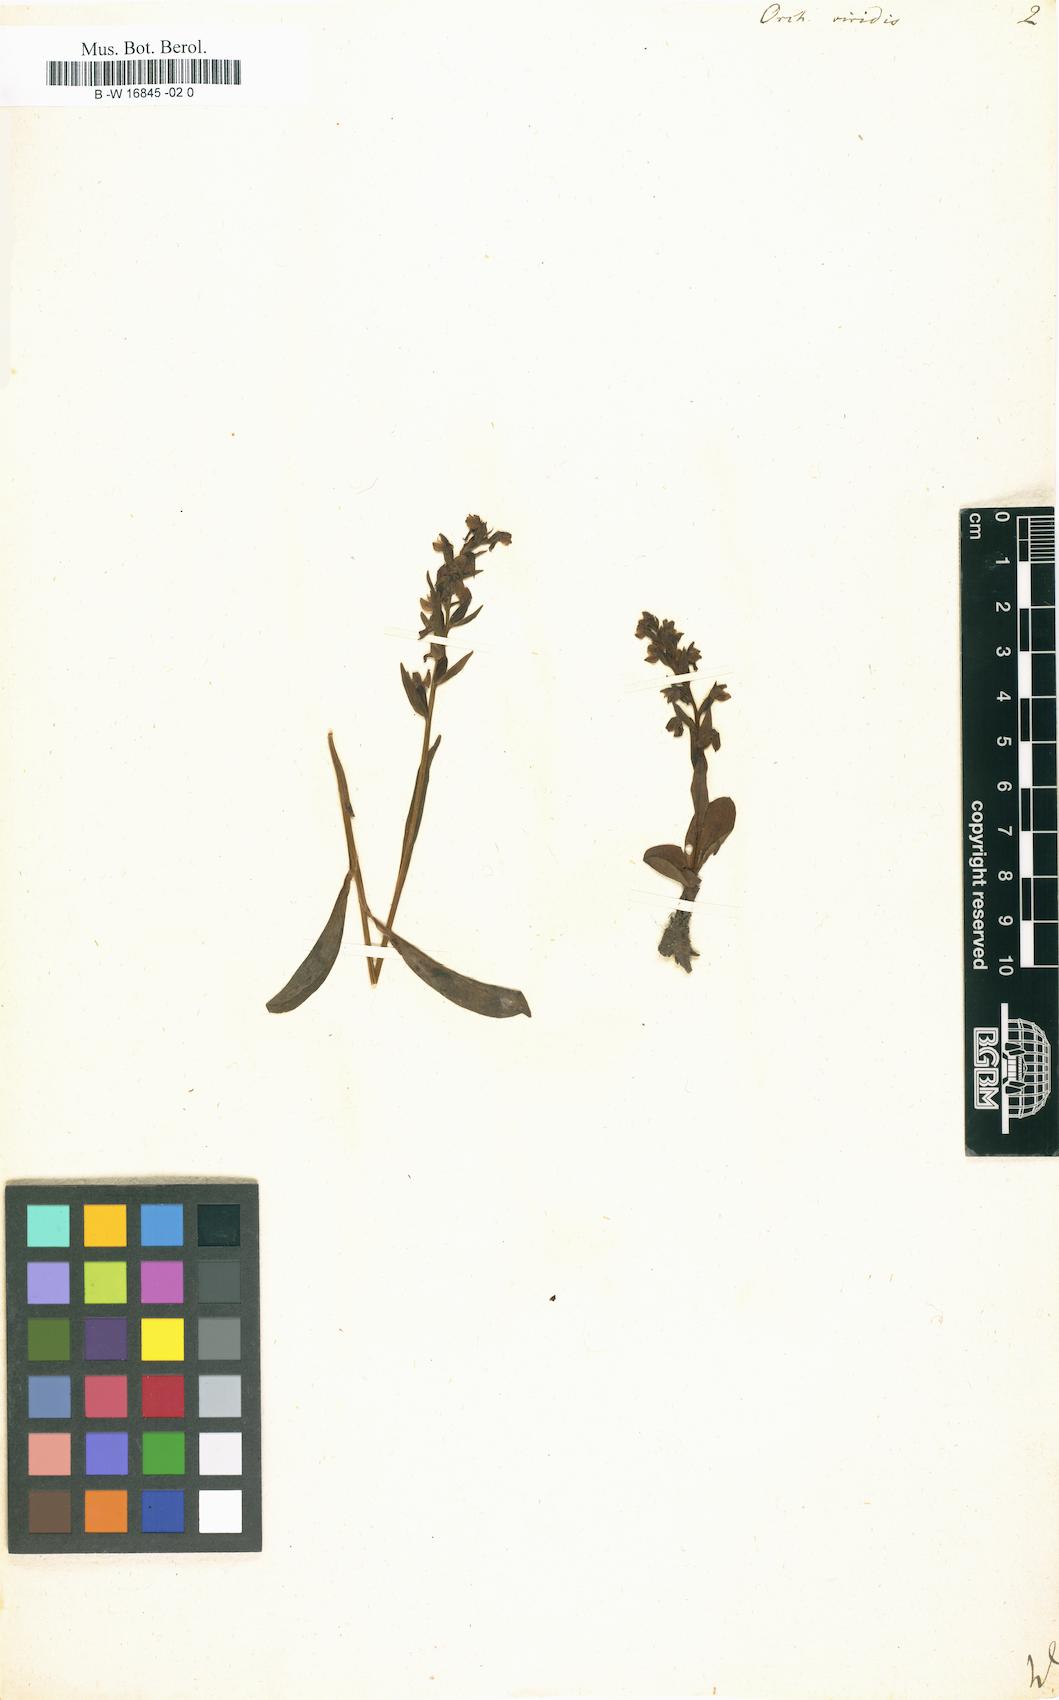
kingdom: Plantae
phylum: Tracheophyta
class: Liliopsida
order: Asparagales
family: Orchidaceae
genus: Dactylorhiza
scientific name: Dactylorhiza viridis
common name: Longbract frog orchid
